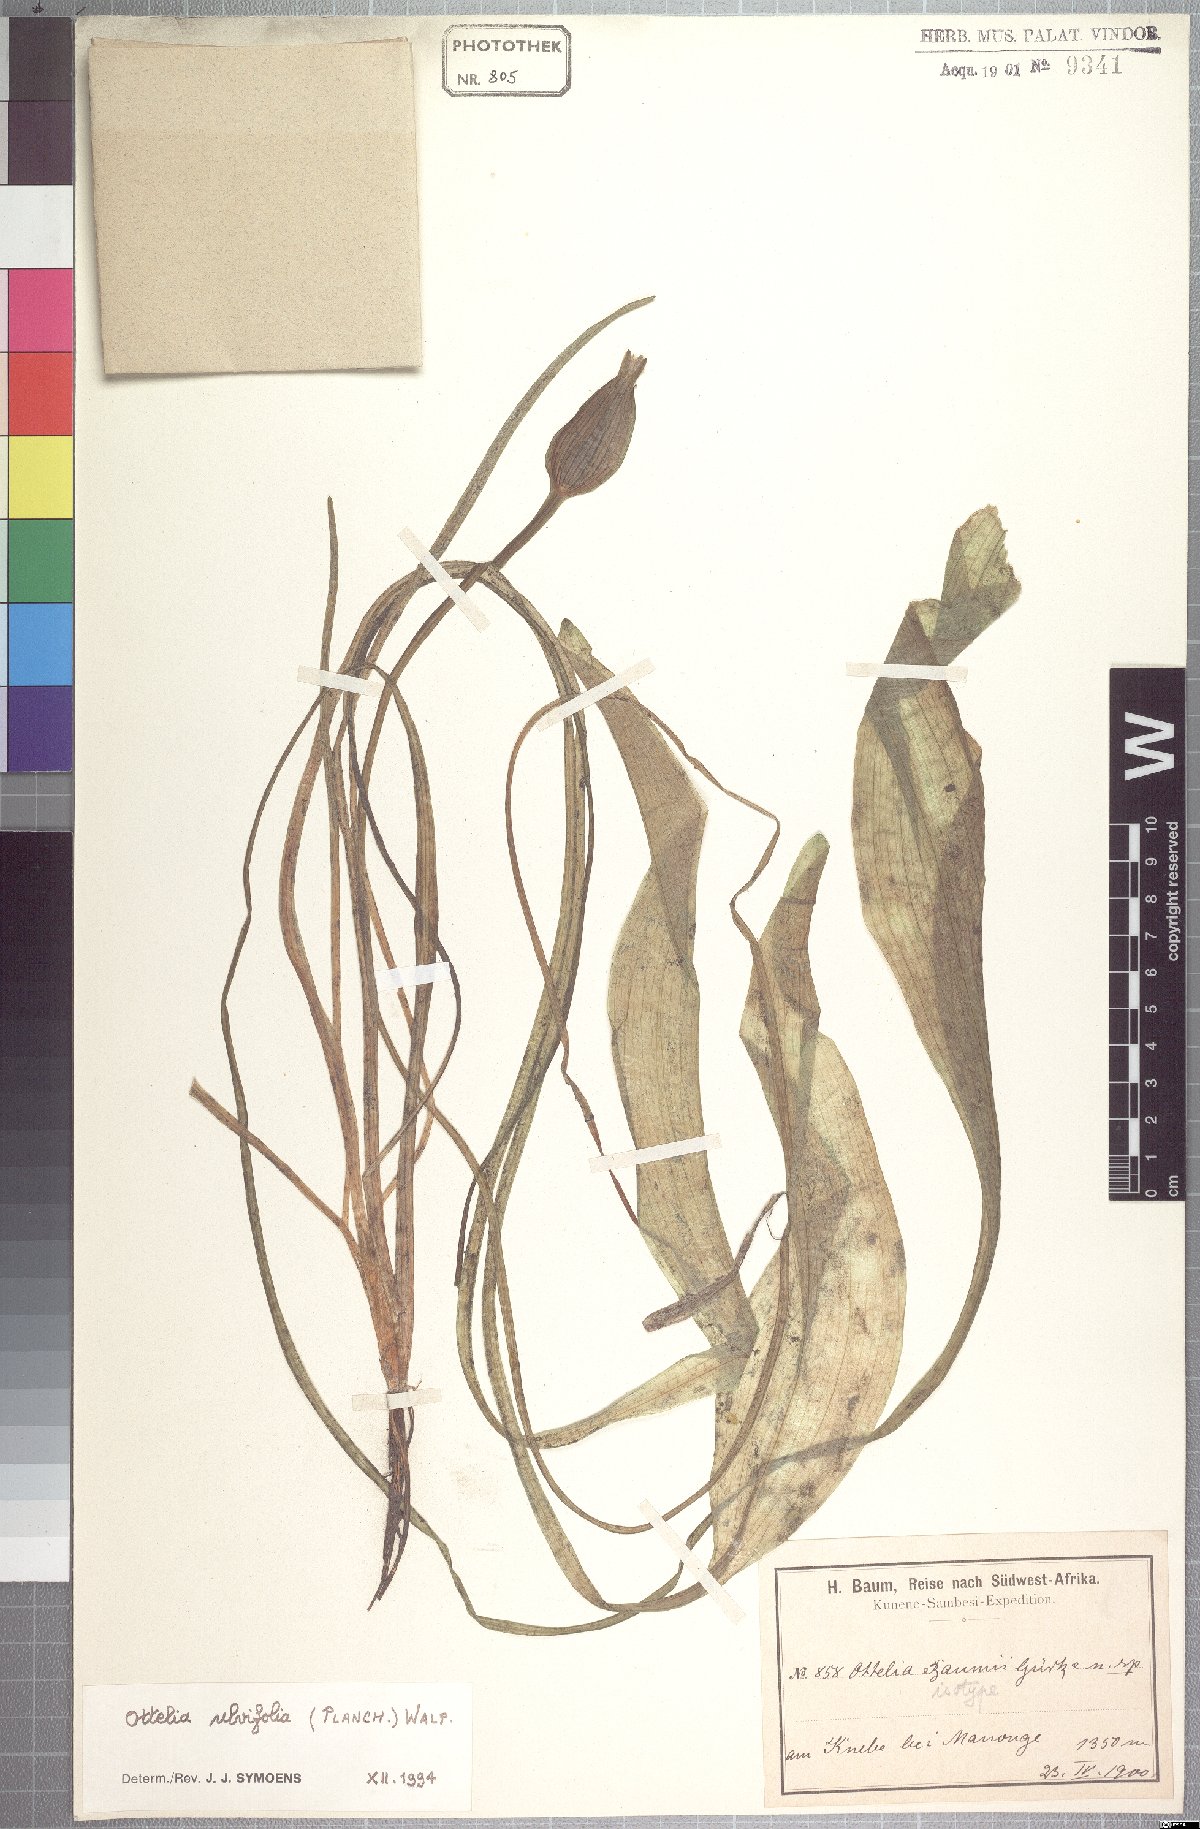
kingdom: Plantae
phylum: Tracheophyta
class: Liliopsida
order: Alismatales
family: Hydrocharitaceae
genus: Ottelia
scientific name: Ottelia ulvifolia
